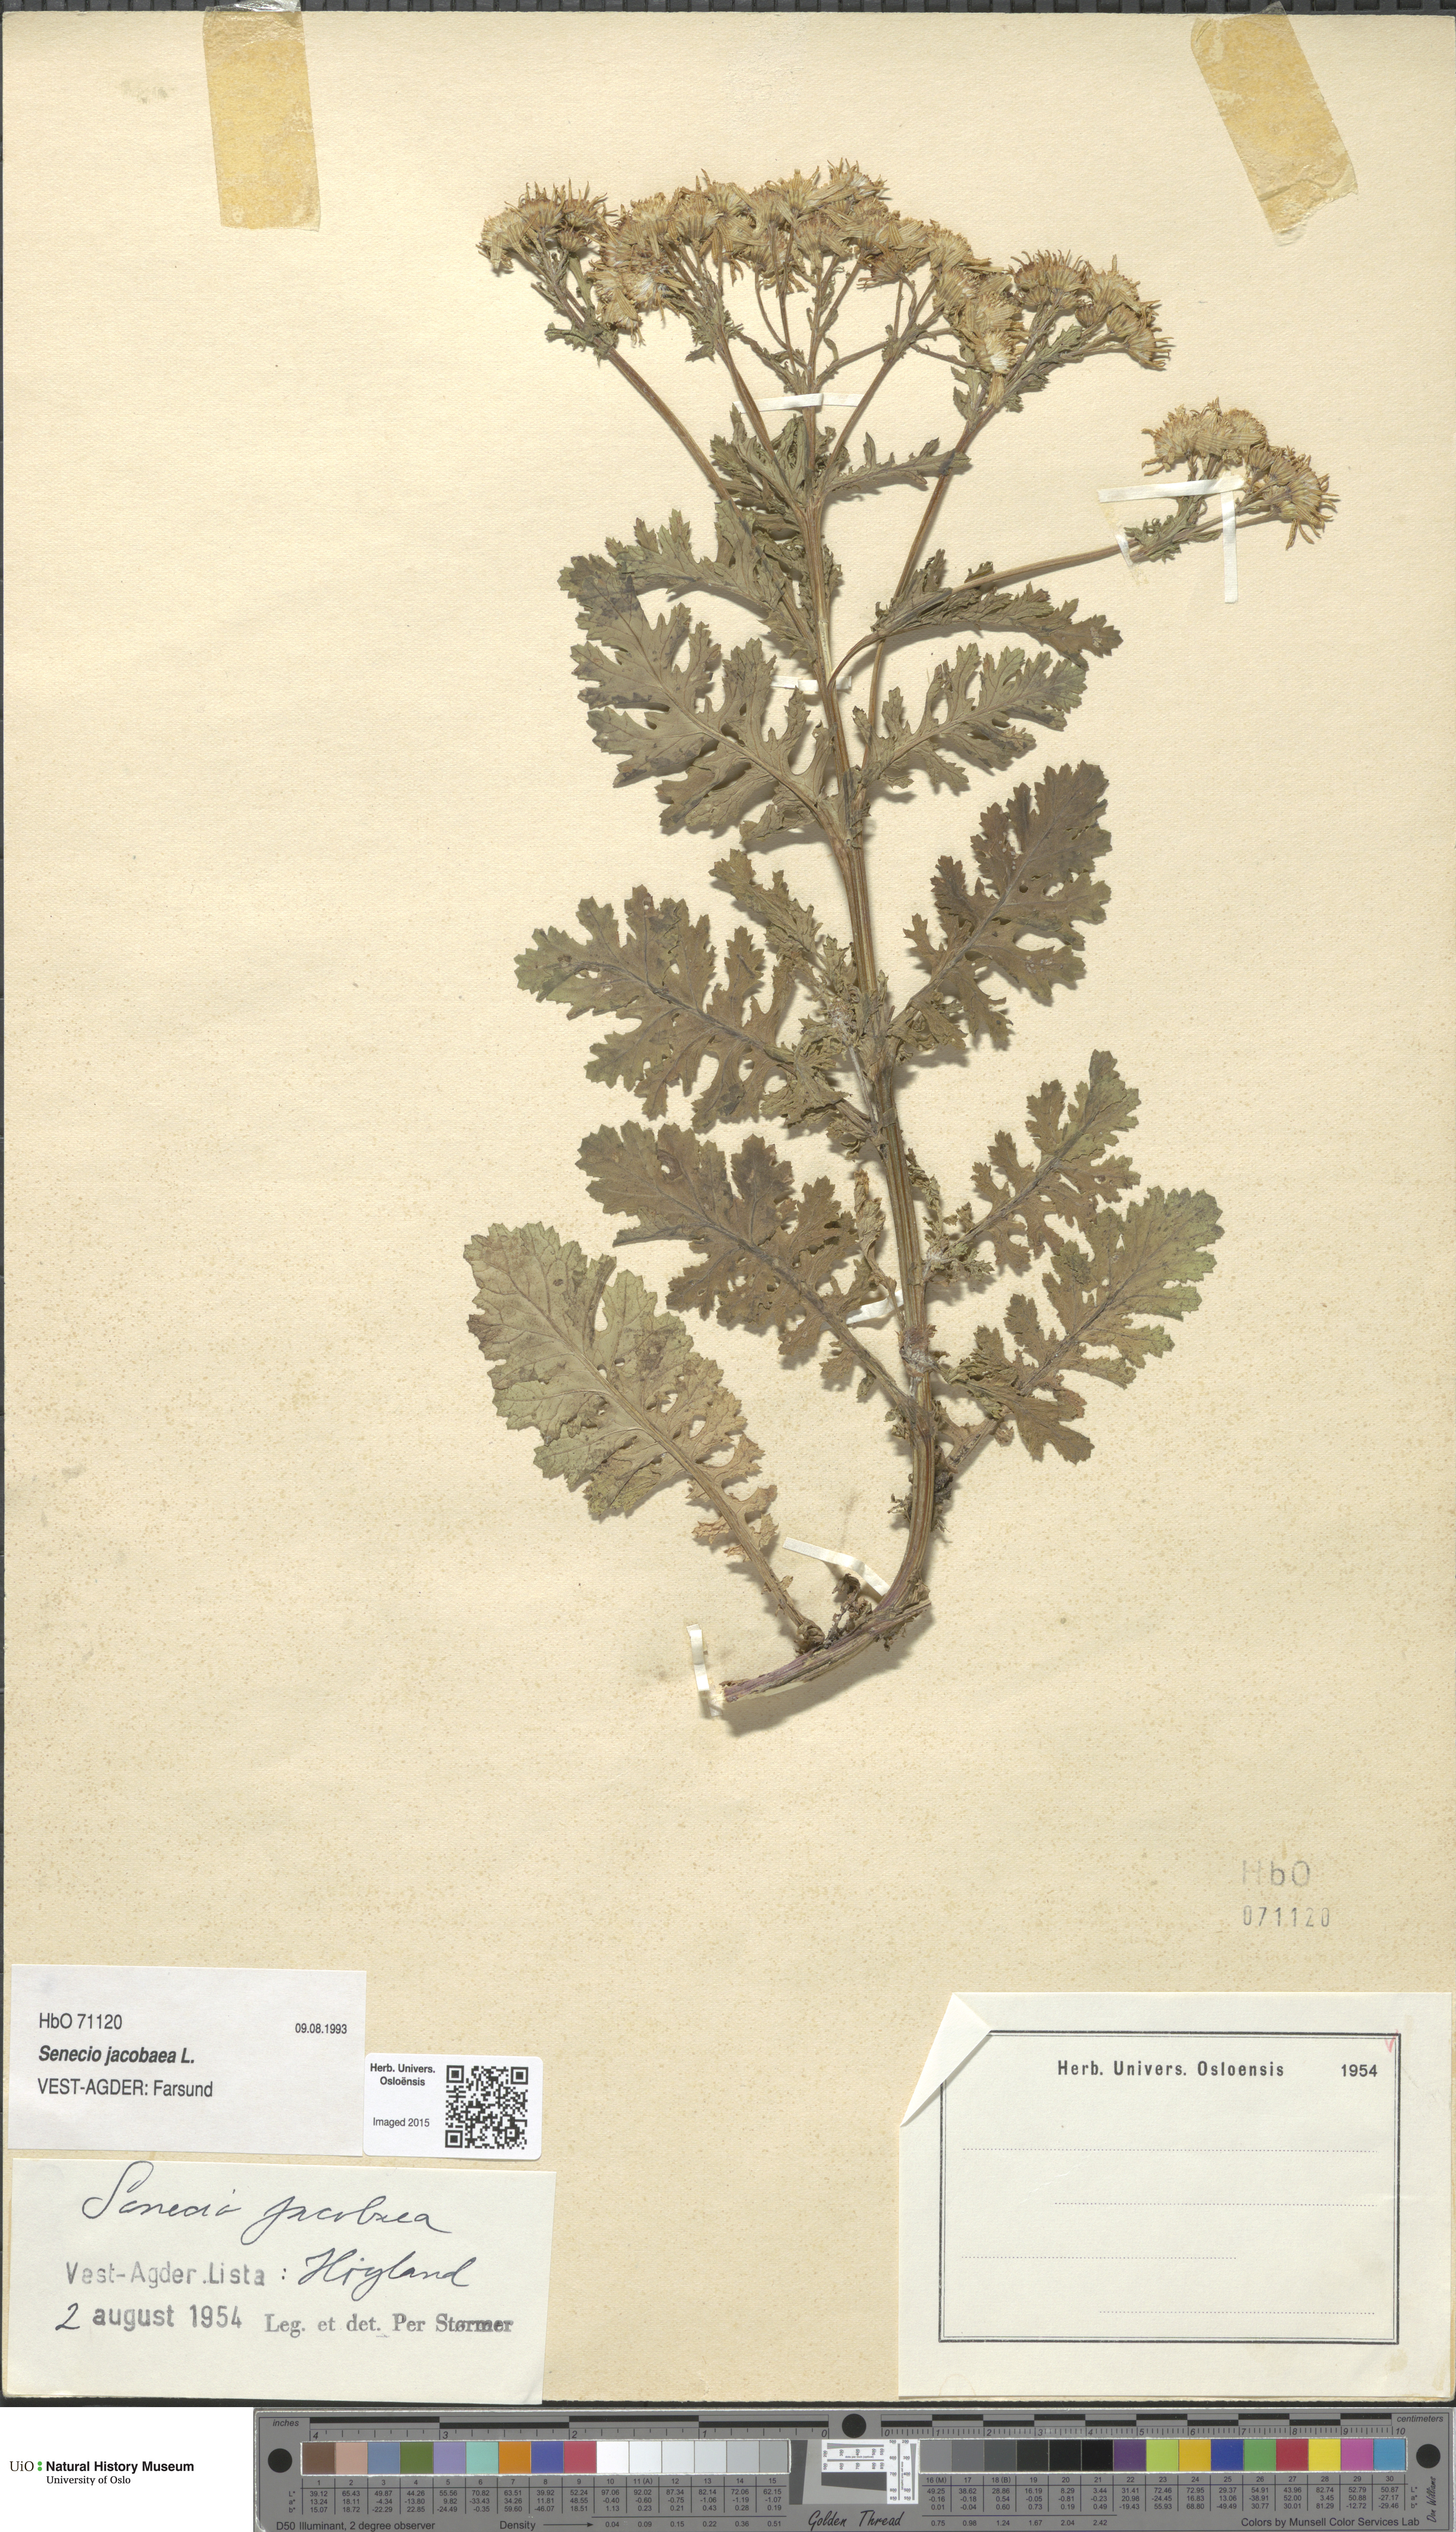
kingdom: Plantae
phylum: Tracheophyta
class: Magnoliopsida
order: Asterales
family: Asteraceae
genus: Jacobaea
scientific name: Jacobaea vulgaris
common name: Stinking willie
